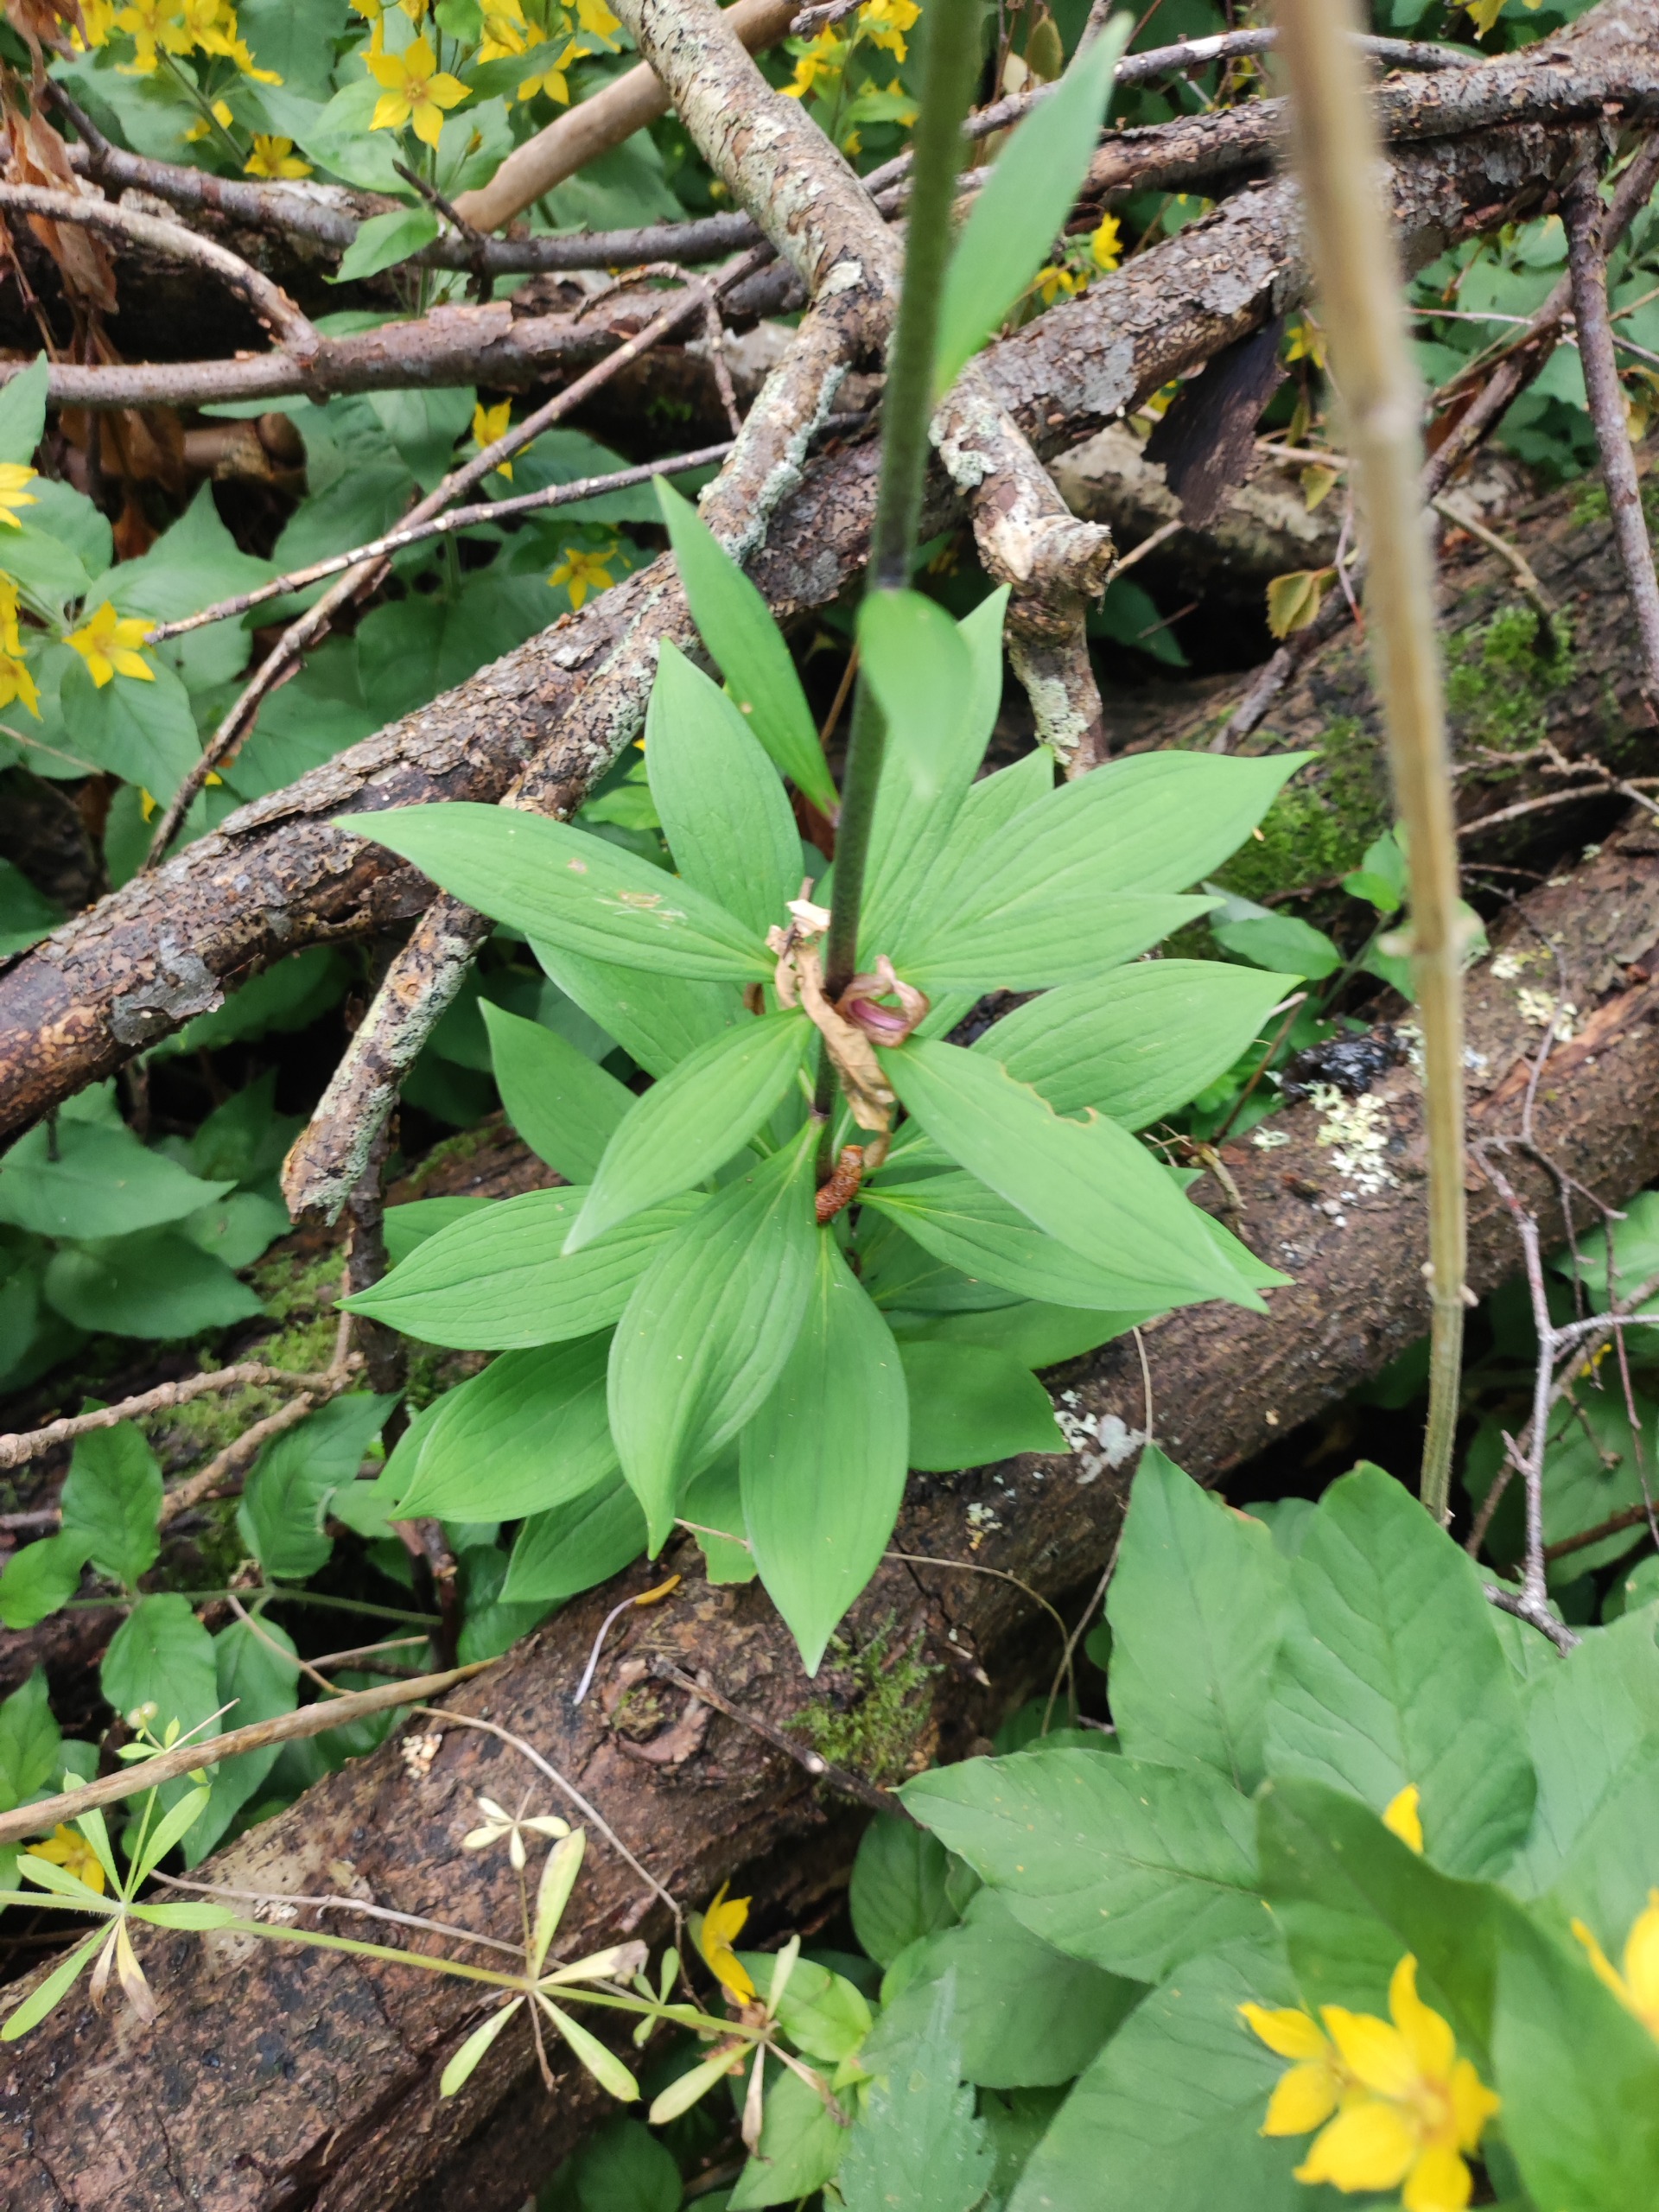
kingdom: Plantae
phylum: Tracheophyta
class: Liliopsida
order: Liliales
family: Liliaceae
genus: Lilium
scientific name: Lilium martagon
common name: Krans-lilje
